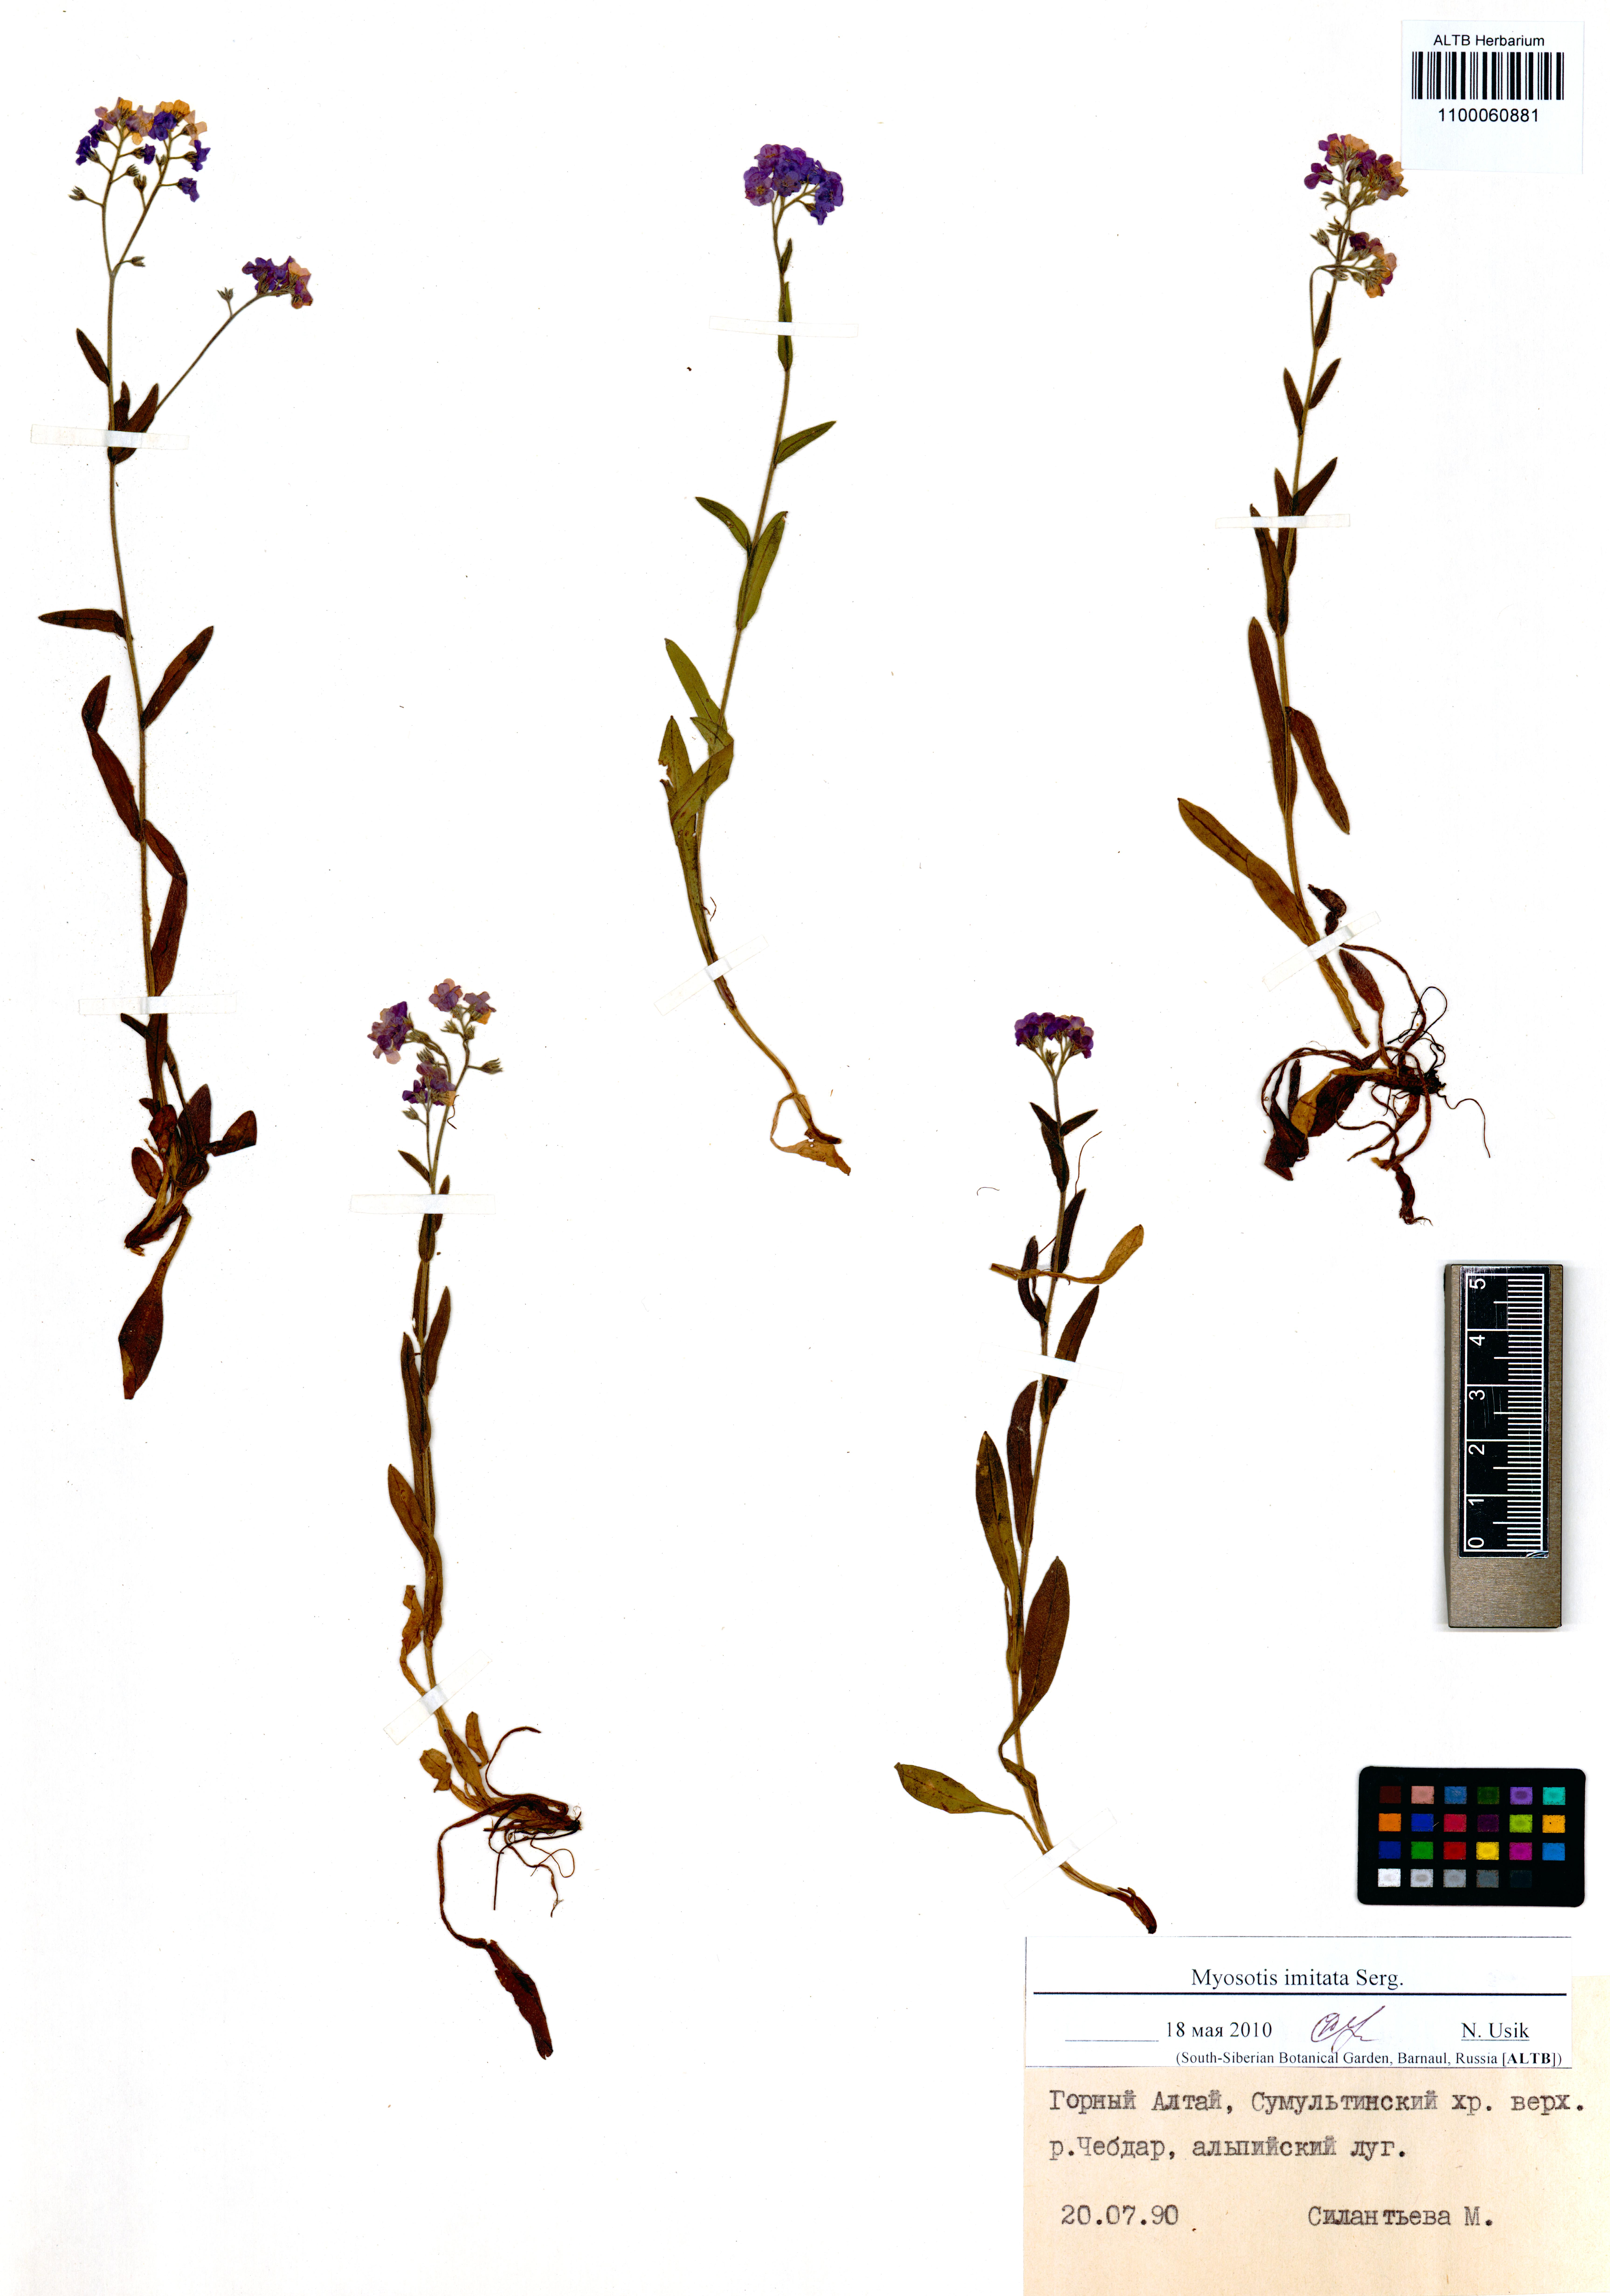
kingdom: Plantae
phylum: Tracheophyta
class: Magnoliopsida
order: Boraginales
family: Boraginaceae
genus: Myosotis
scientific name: Myosotis imitata
